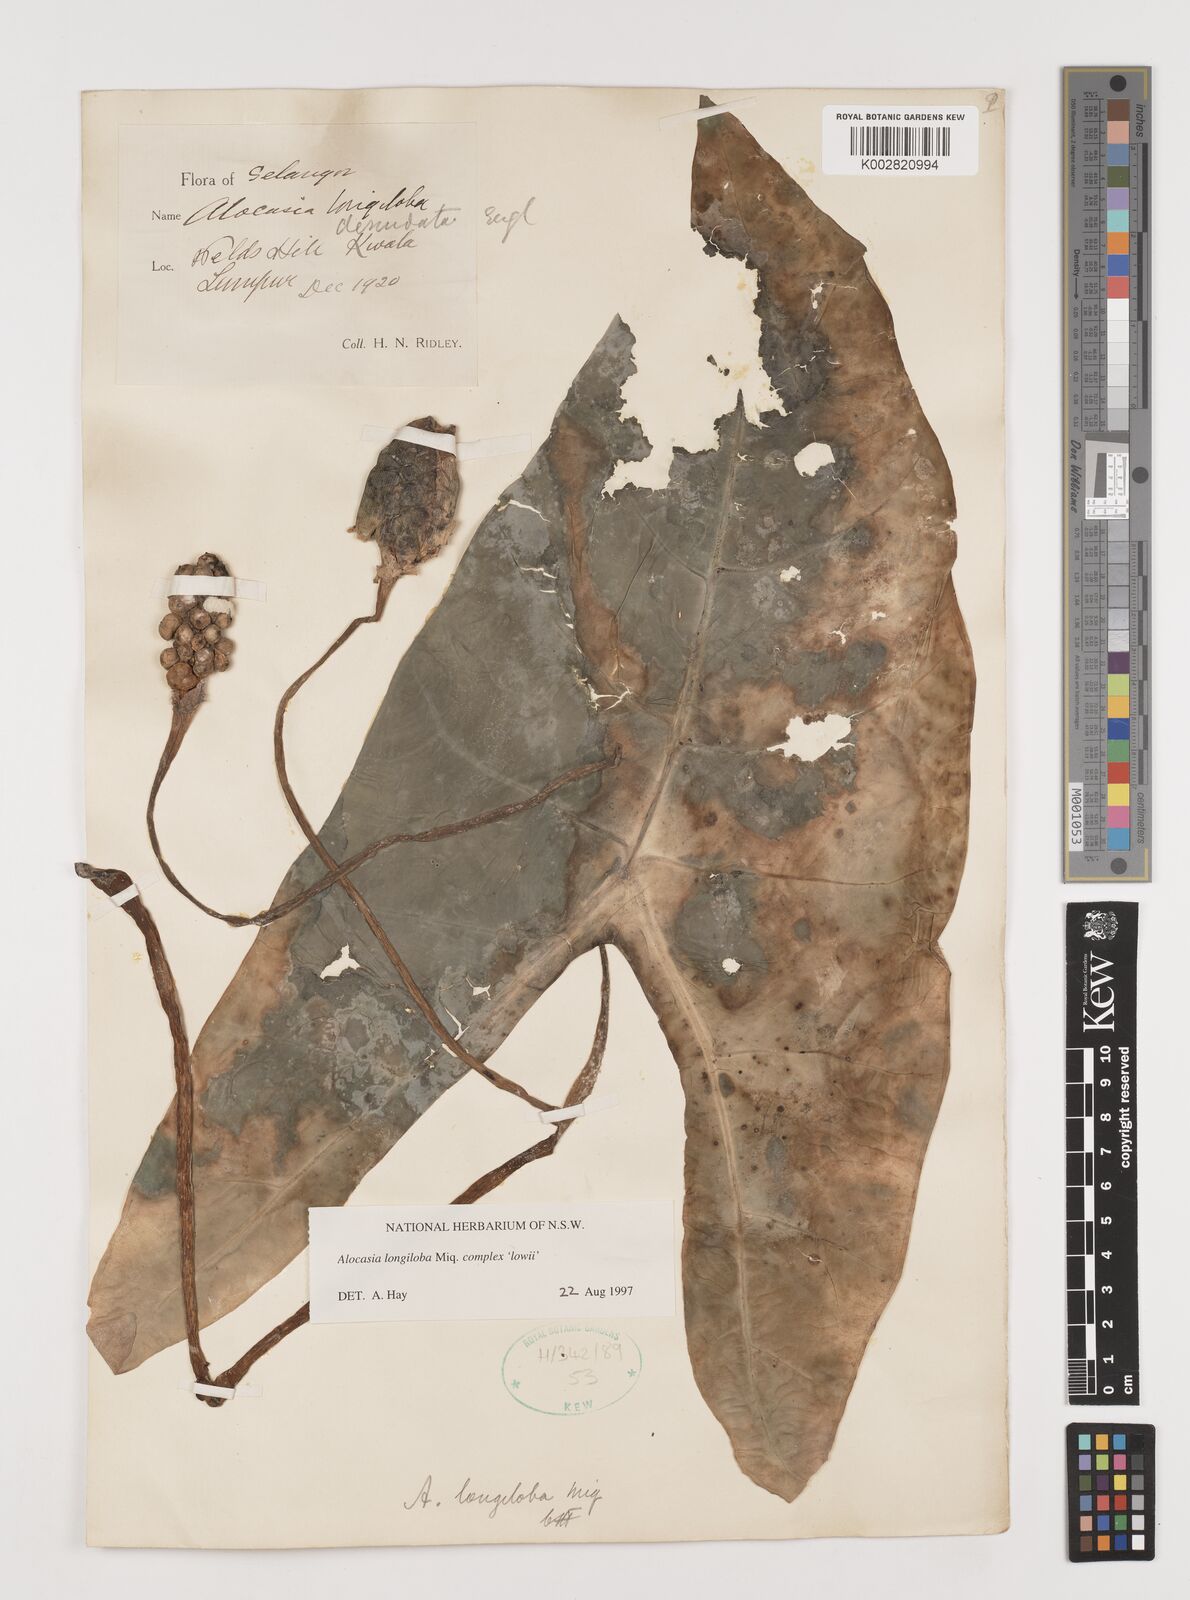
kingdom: Plantae
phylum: Tracheophyta
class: Liliopsida
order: Alismatales
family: Araceae
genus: Alocasia
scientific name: Alocasia longiloba
